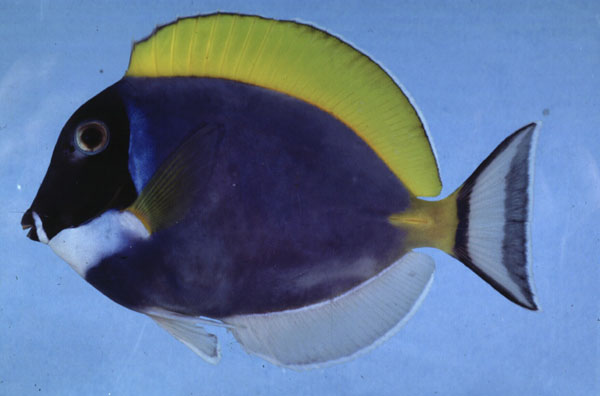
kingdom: Animalia
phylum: Chordata
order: Perciformes
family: Acanthuridae
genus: Acanthurus
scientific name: Acanthurus leucosternon
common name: Blue surgeonfish
